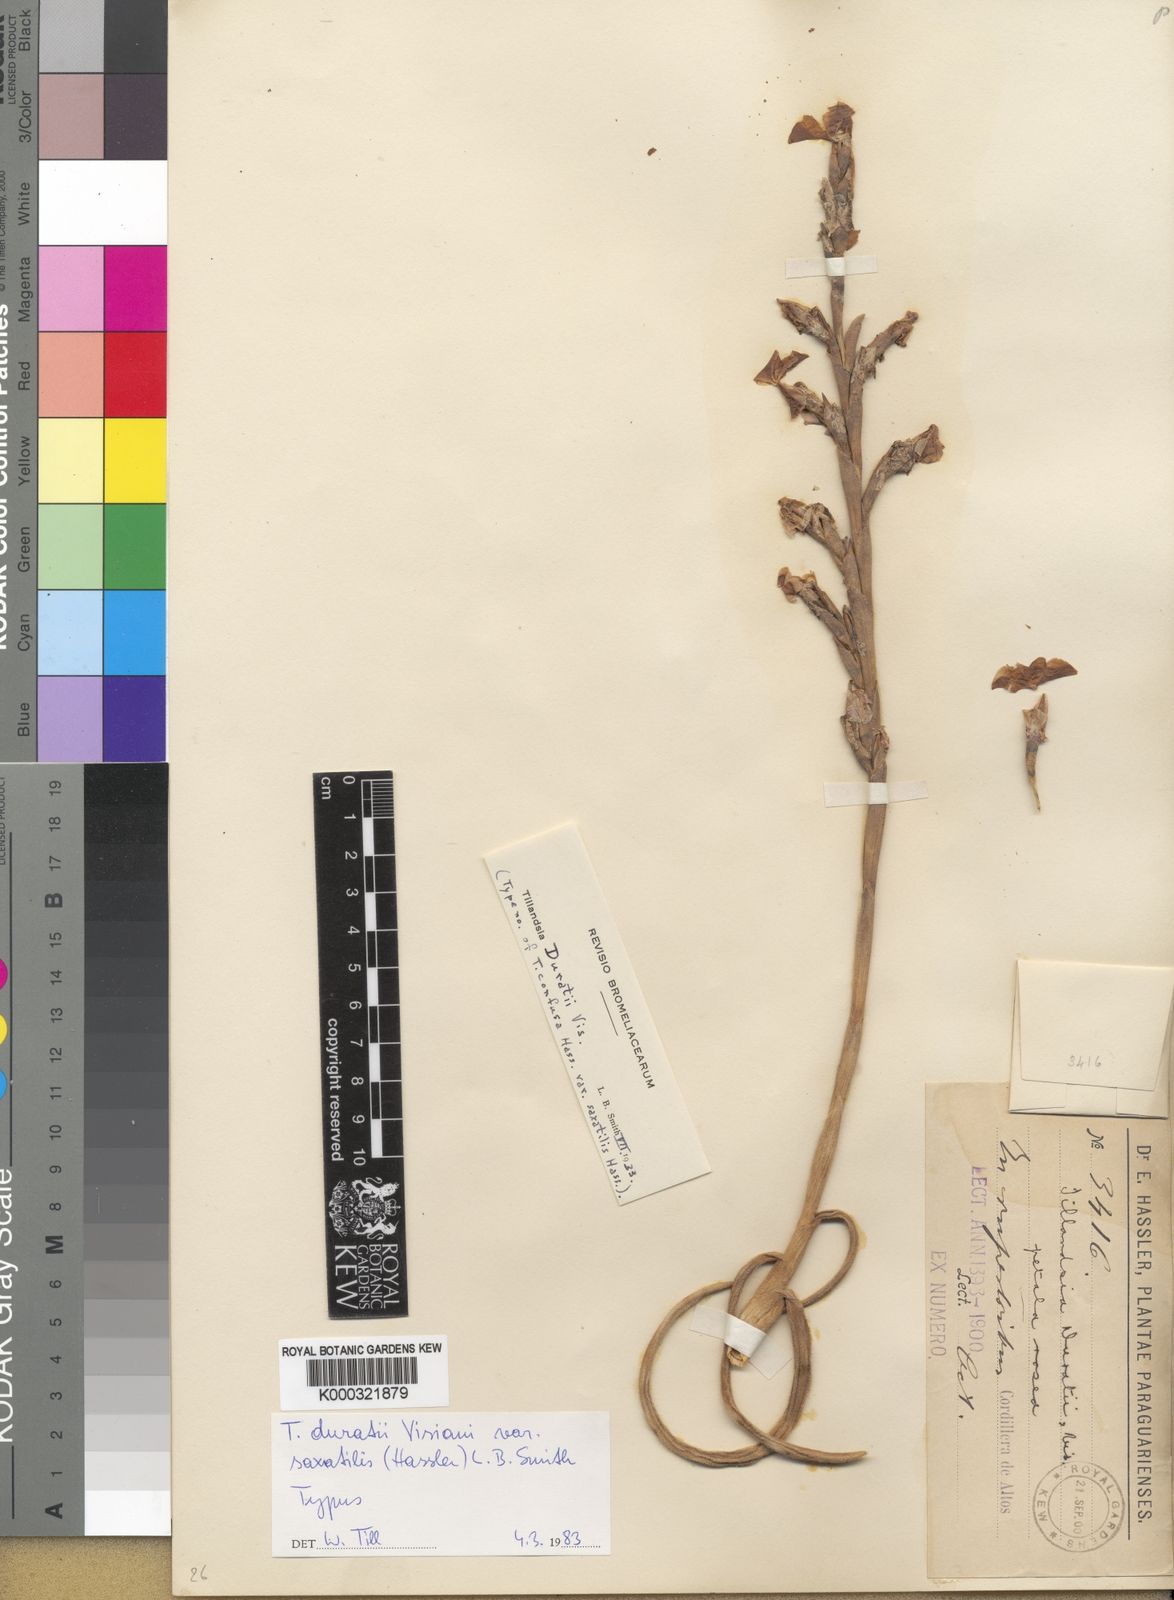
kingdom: Plantae
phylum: Tracheophyta
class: Liliopsida
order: Poales
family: Bromeliaceae
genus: Tillandsia
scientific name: Tillandsia duratii
